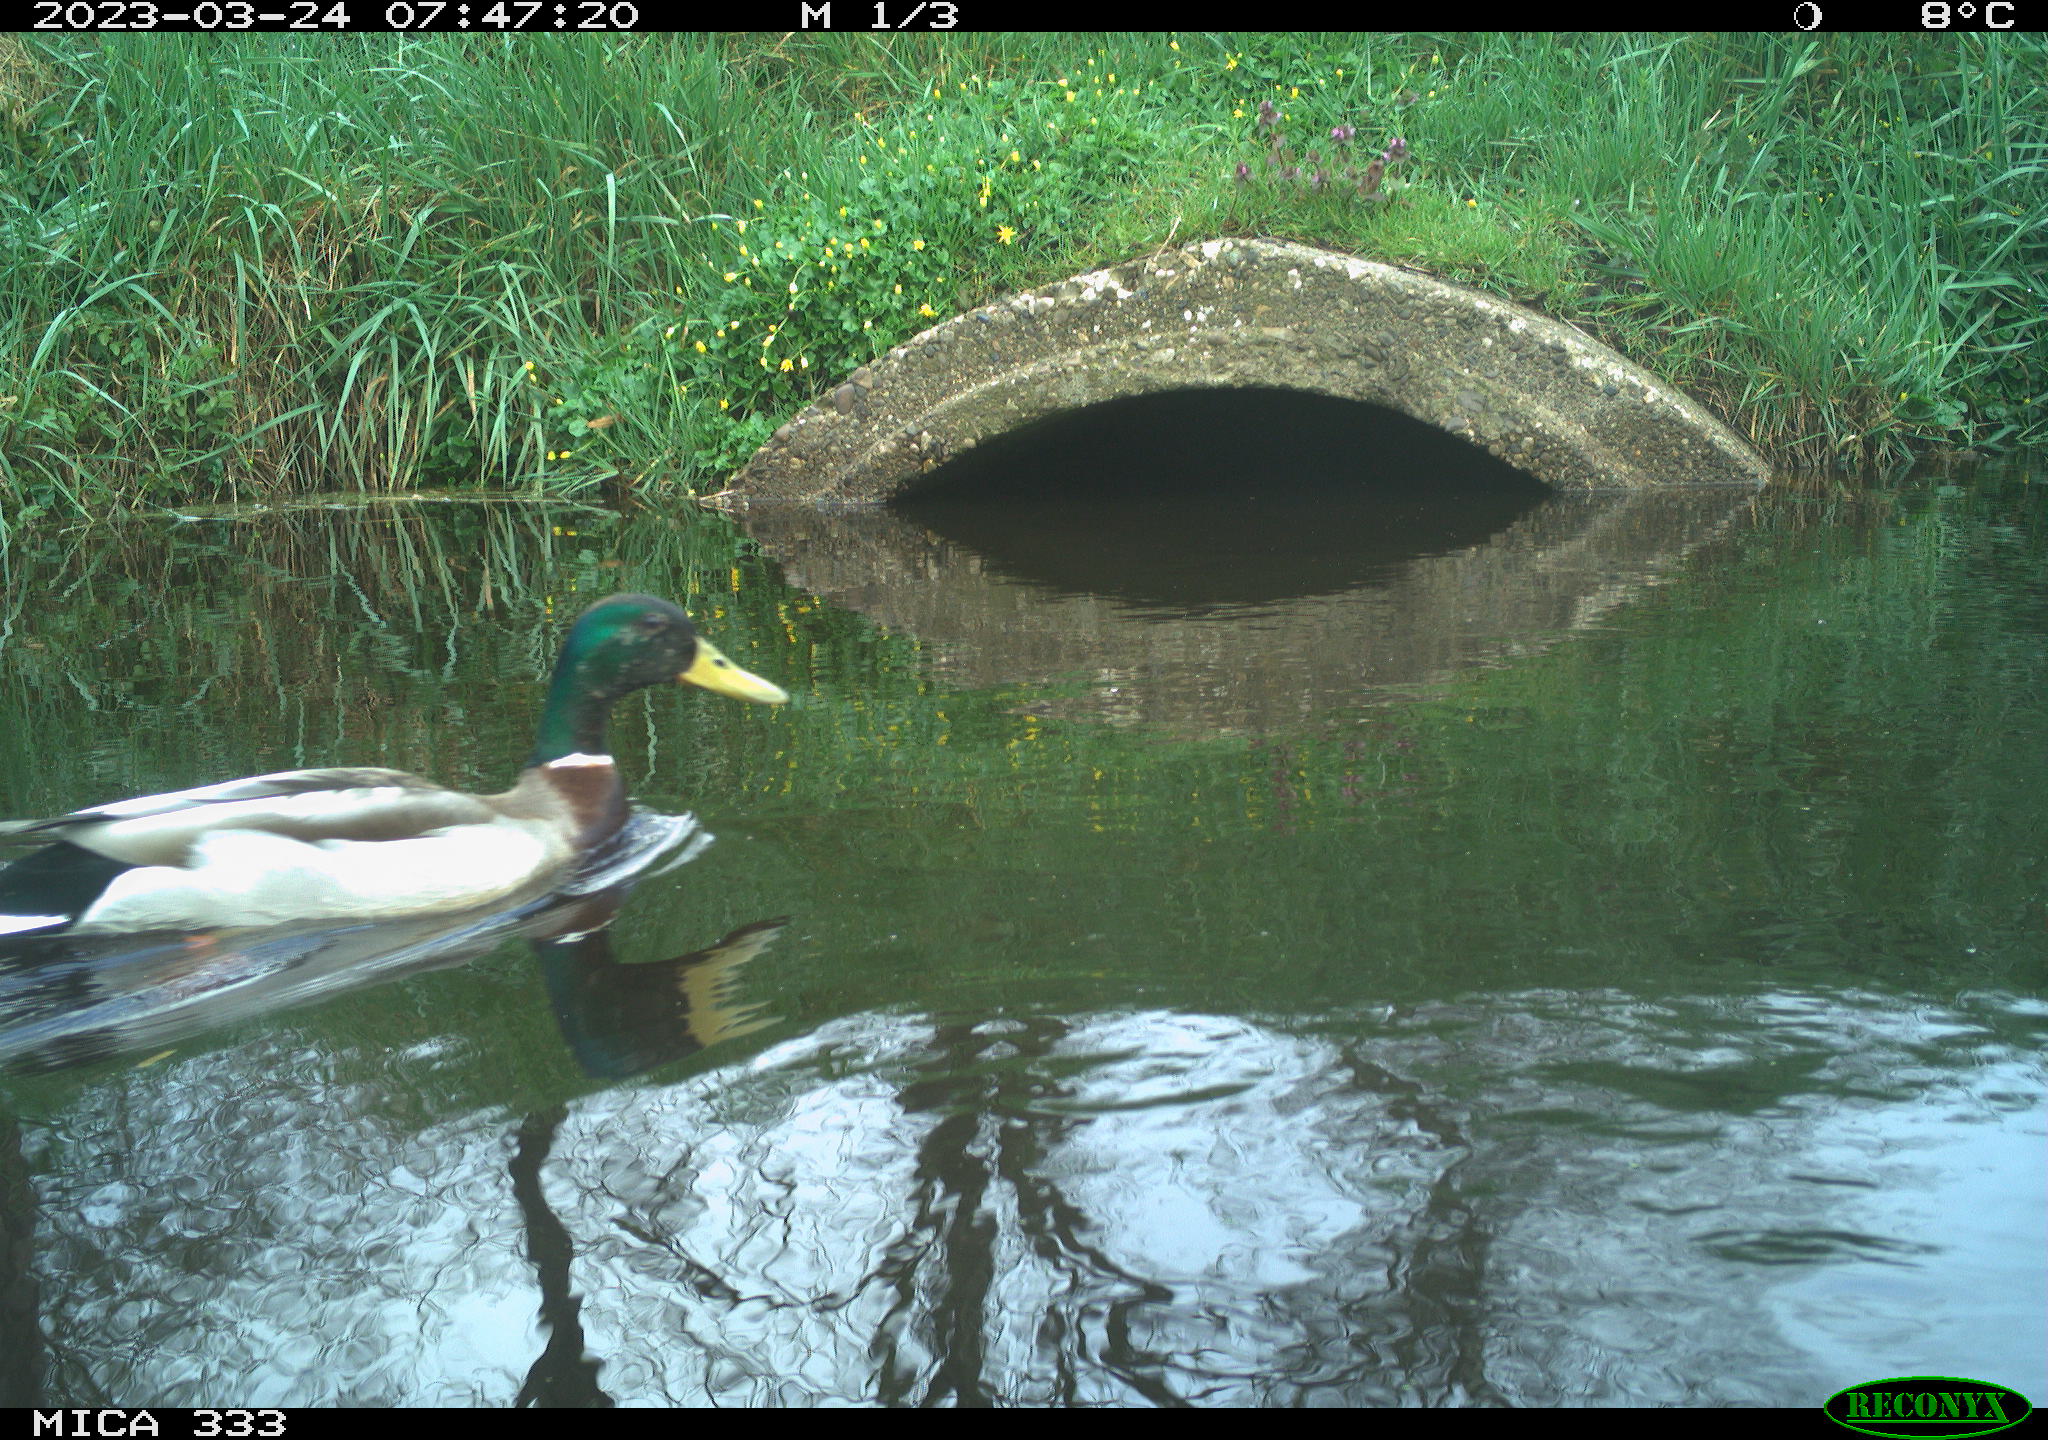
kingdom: Animalia
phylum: Chordata
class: Aves
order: Anseriformes
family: Anatidae
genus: Anas
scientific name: Anas platyrhynchos
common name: Mallard
